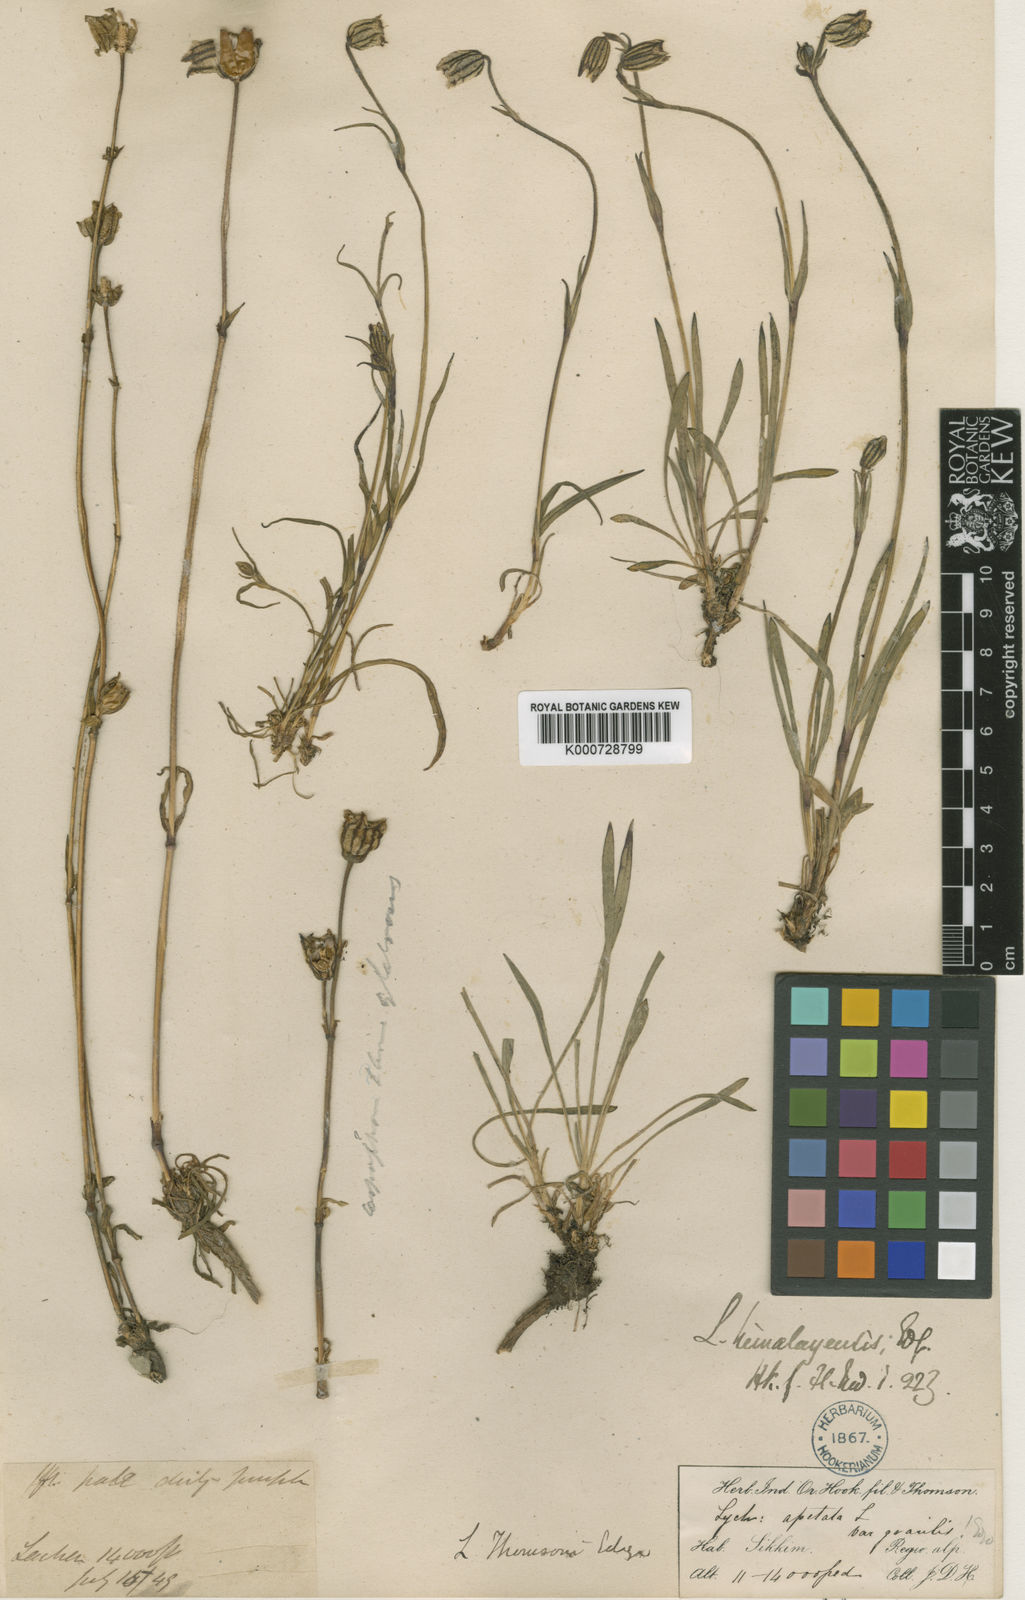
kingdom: Plantae
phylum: Tracheophyta
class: Magnoliopsida
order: Caryophyllales
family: Caryophyllaceae
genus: Silene
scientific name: Silene gonosperma
